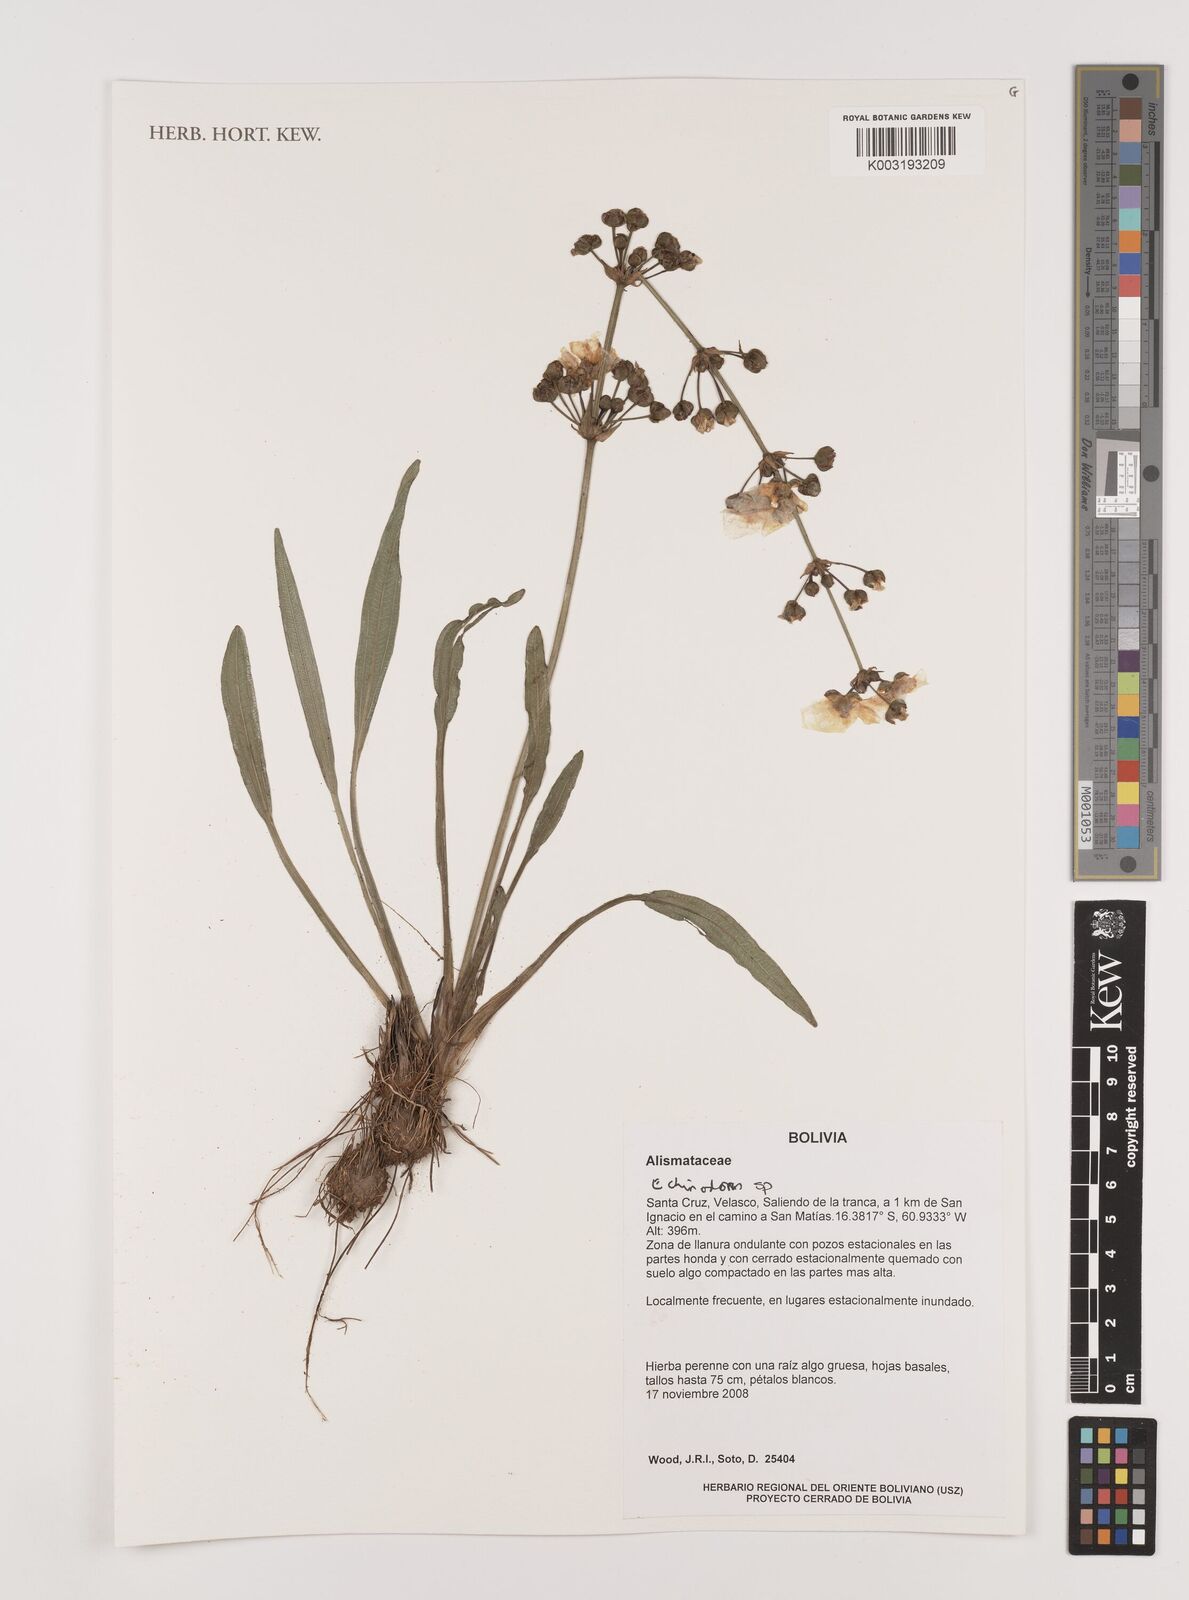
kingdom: Plantae
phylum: Tracheophyta
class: Liliopsida
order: Alismatales
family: Alismataceae
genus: Echinodorus
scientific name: Echinodorus
